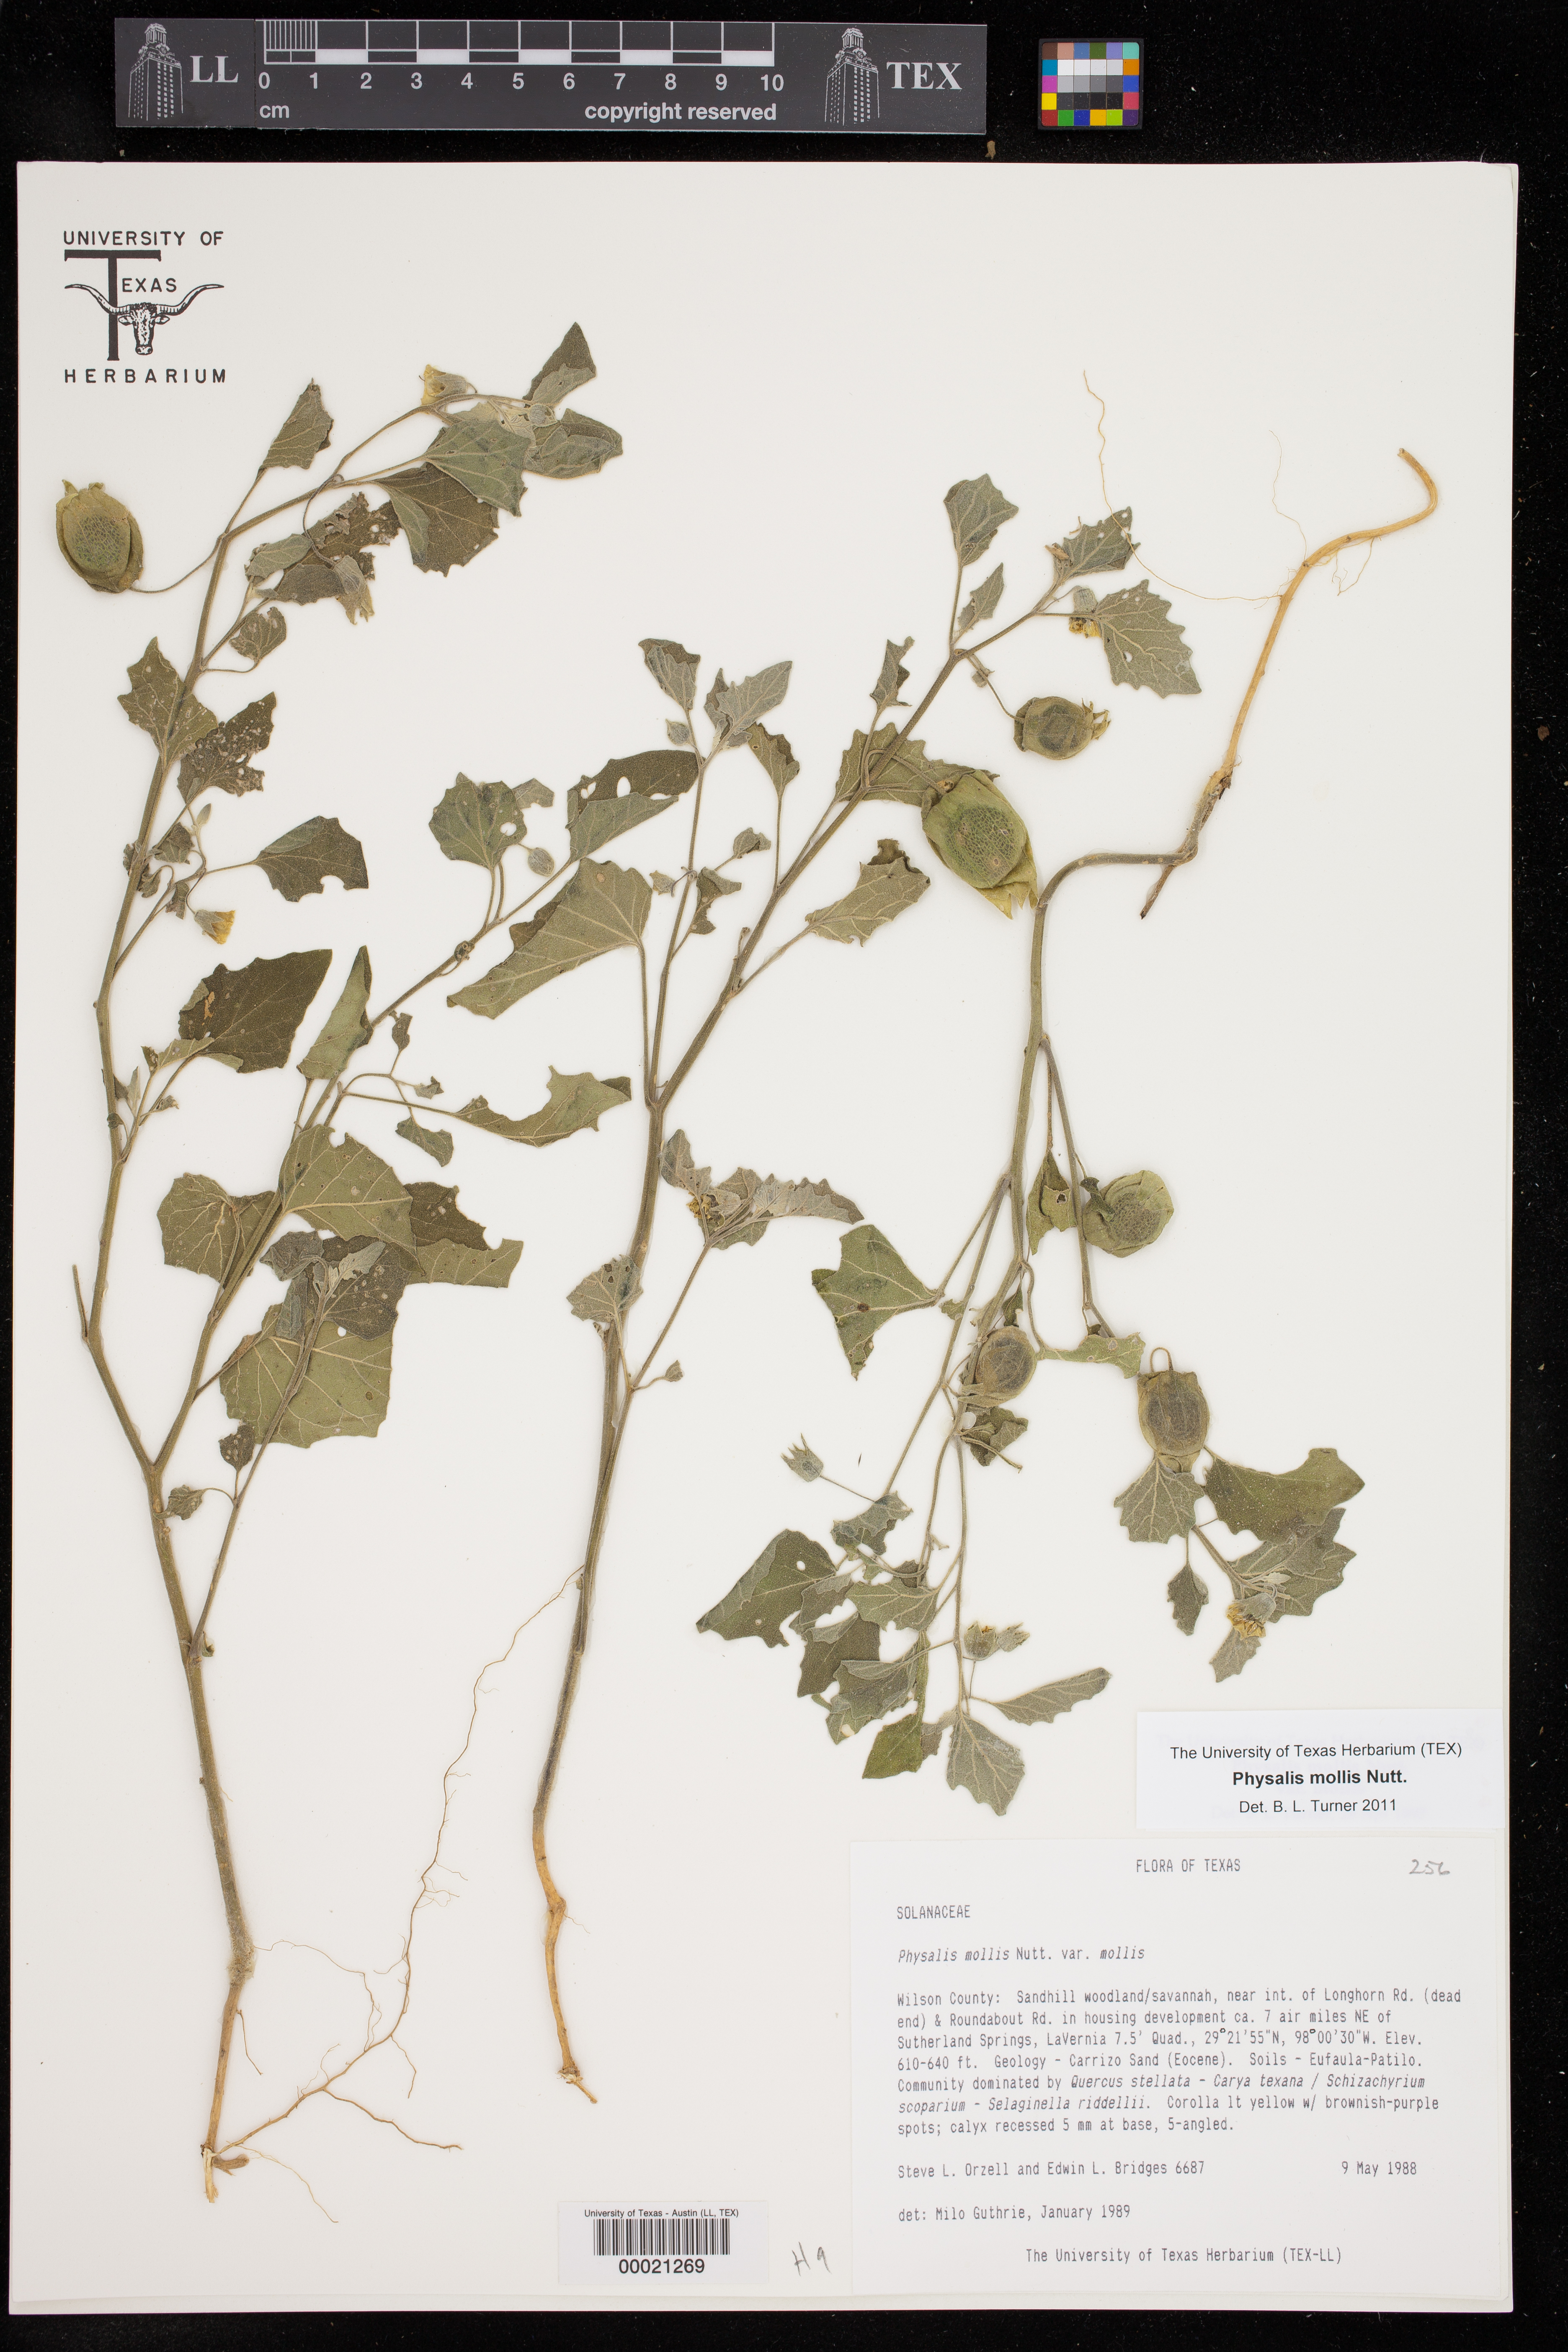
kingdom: Plantae
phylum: Tracheophyta
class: Magnoliopsida
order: Solanales
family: Solanaceae
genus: Physalis
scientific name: Physalis mollis
